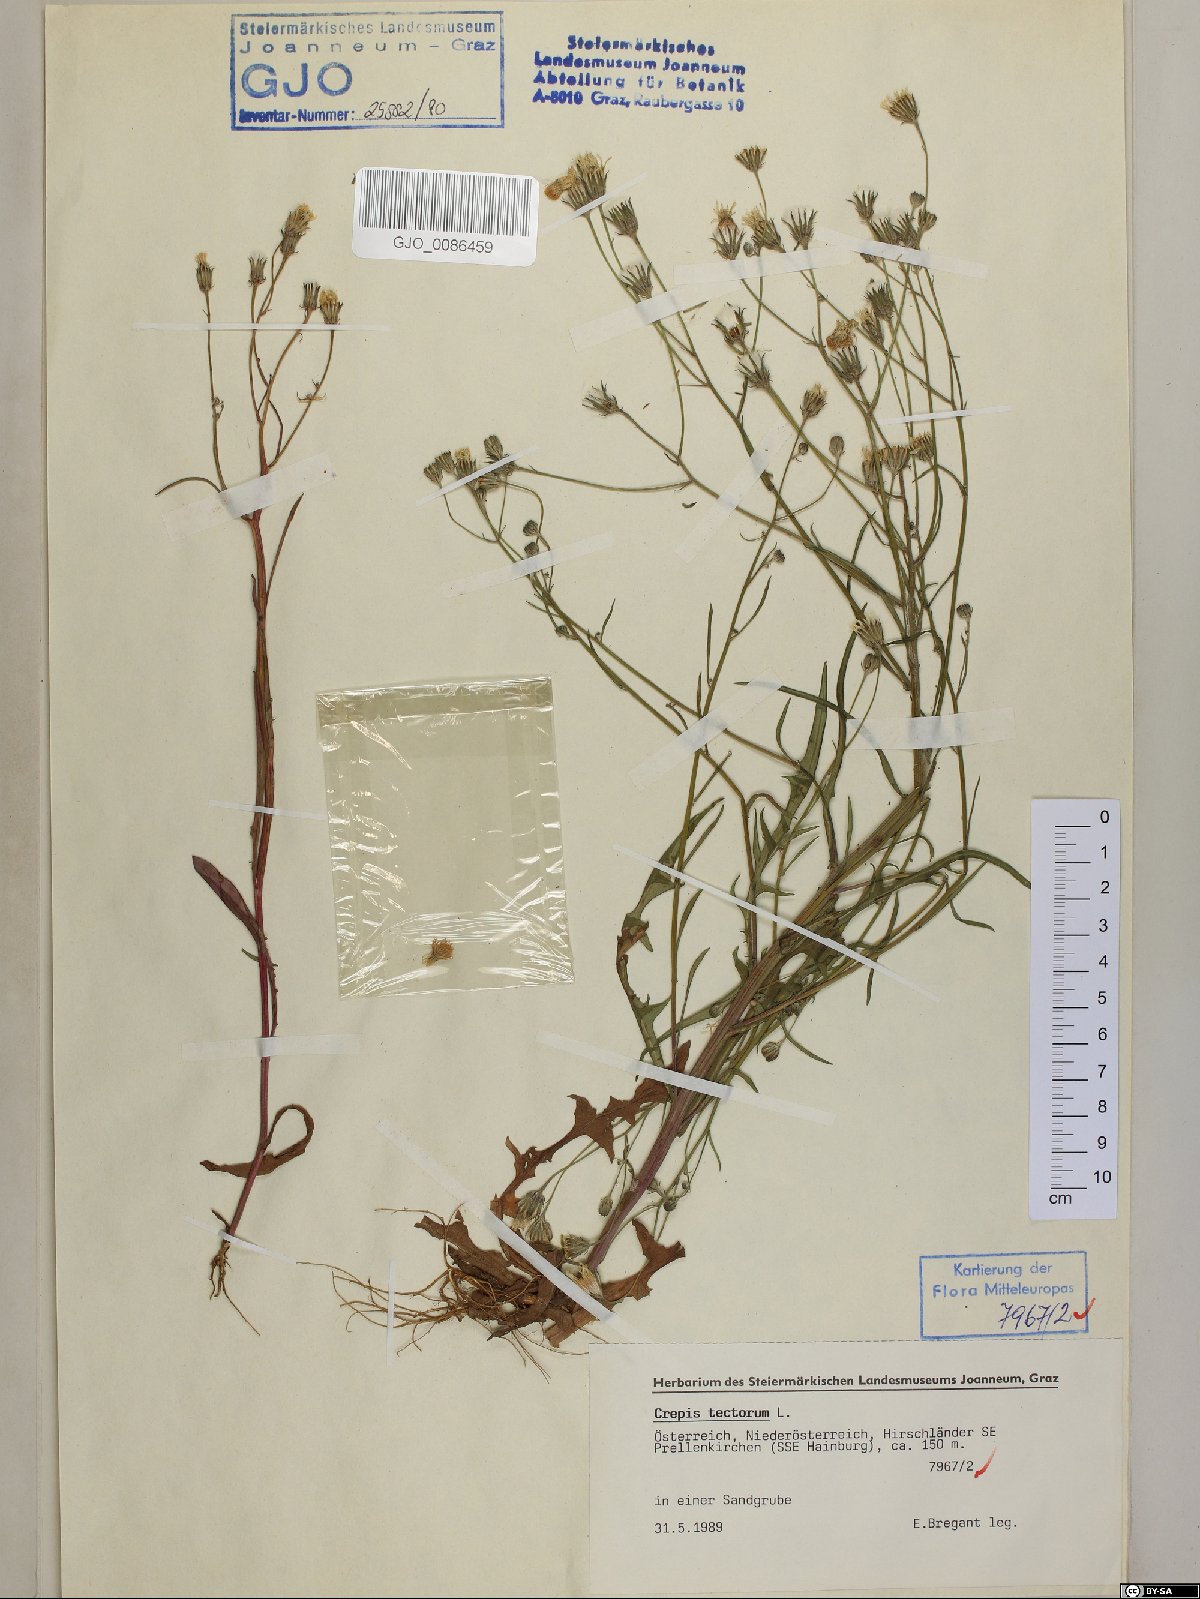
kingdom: Plantae
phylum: Tracheophyta
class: Magnoliopsida
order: Asterales
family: Asteraceae
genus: Crepis
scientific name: Crepis tectorum
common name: Narrow-leaved hawk's-beard
